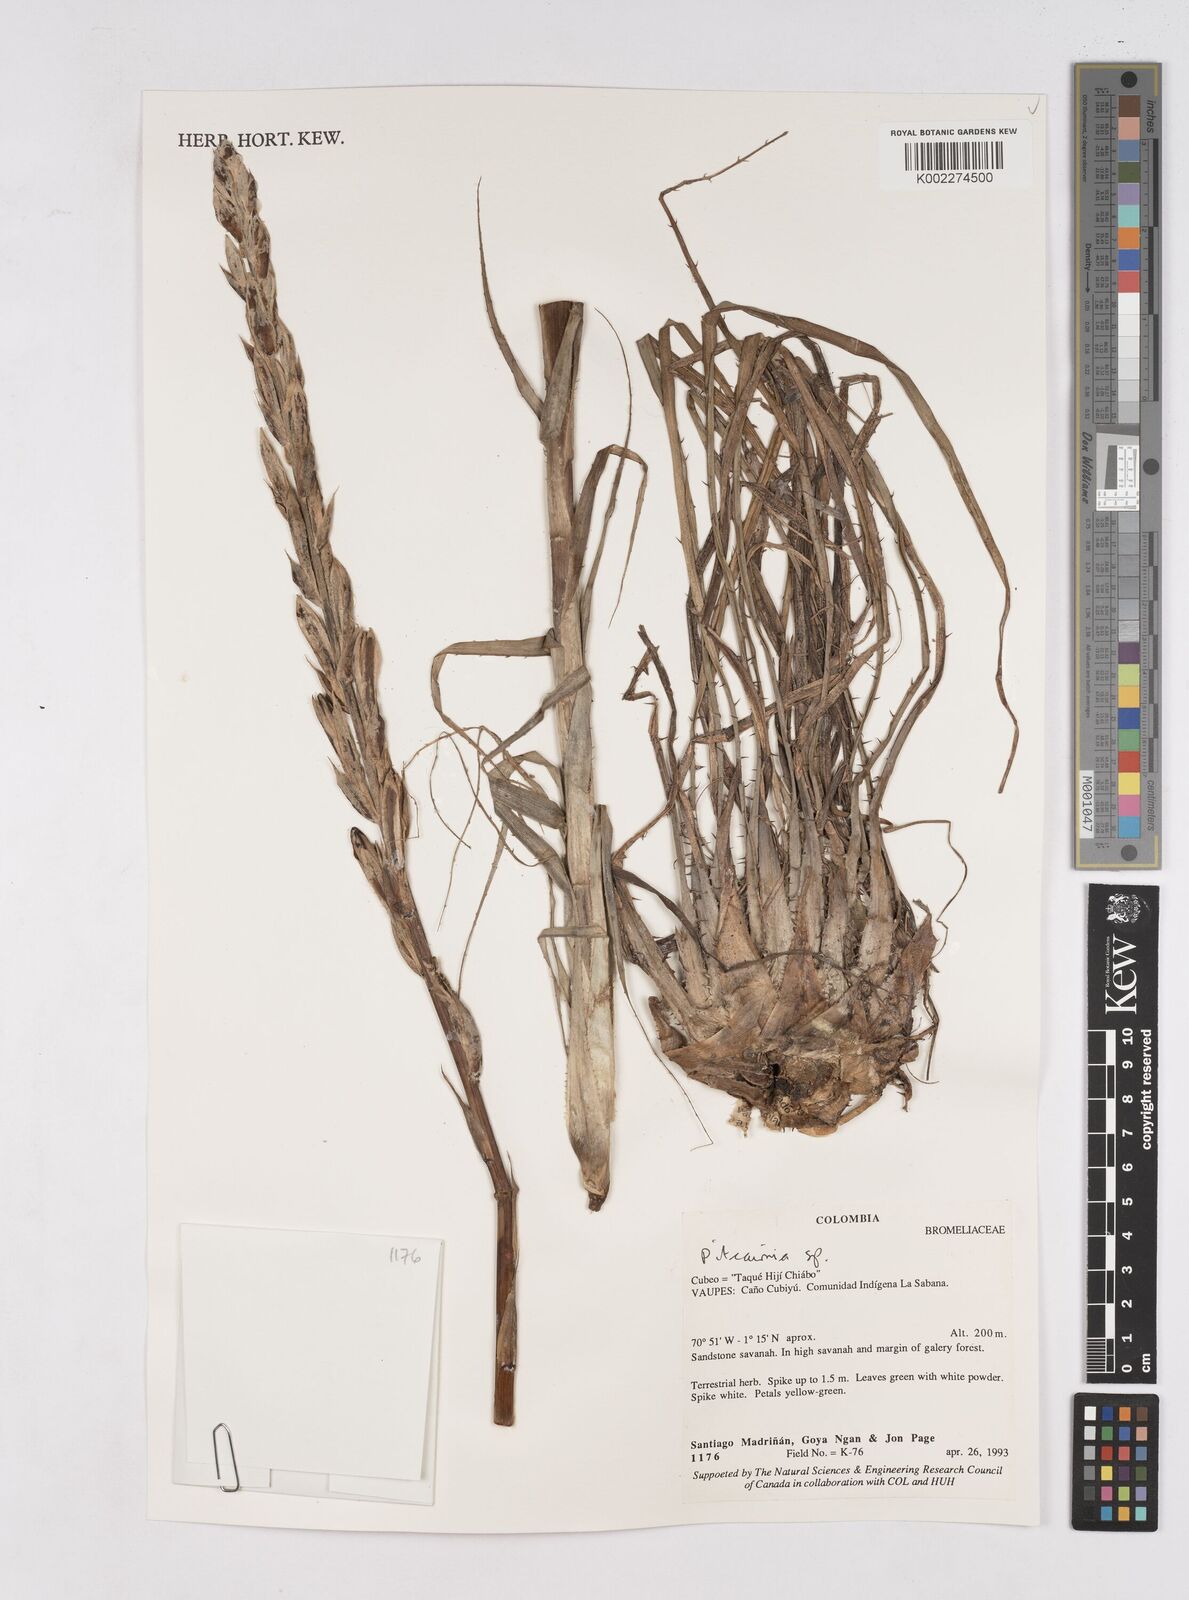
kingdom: Plantae
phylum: Tracheophyta
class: Liliopsida
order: Poales
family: Bromeliaceae
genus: Pitcairnia
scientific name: Pitcairnia
